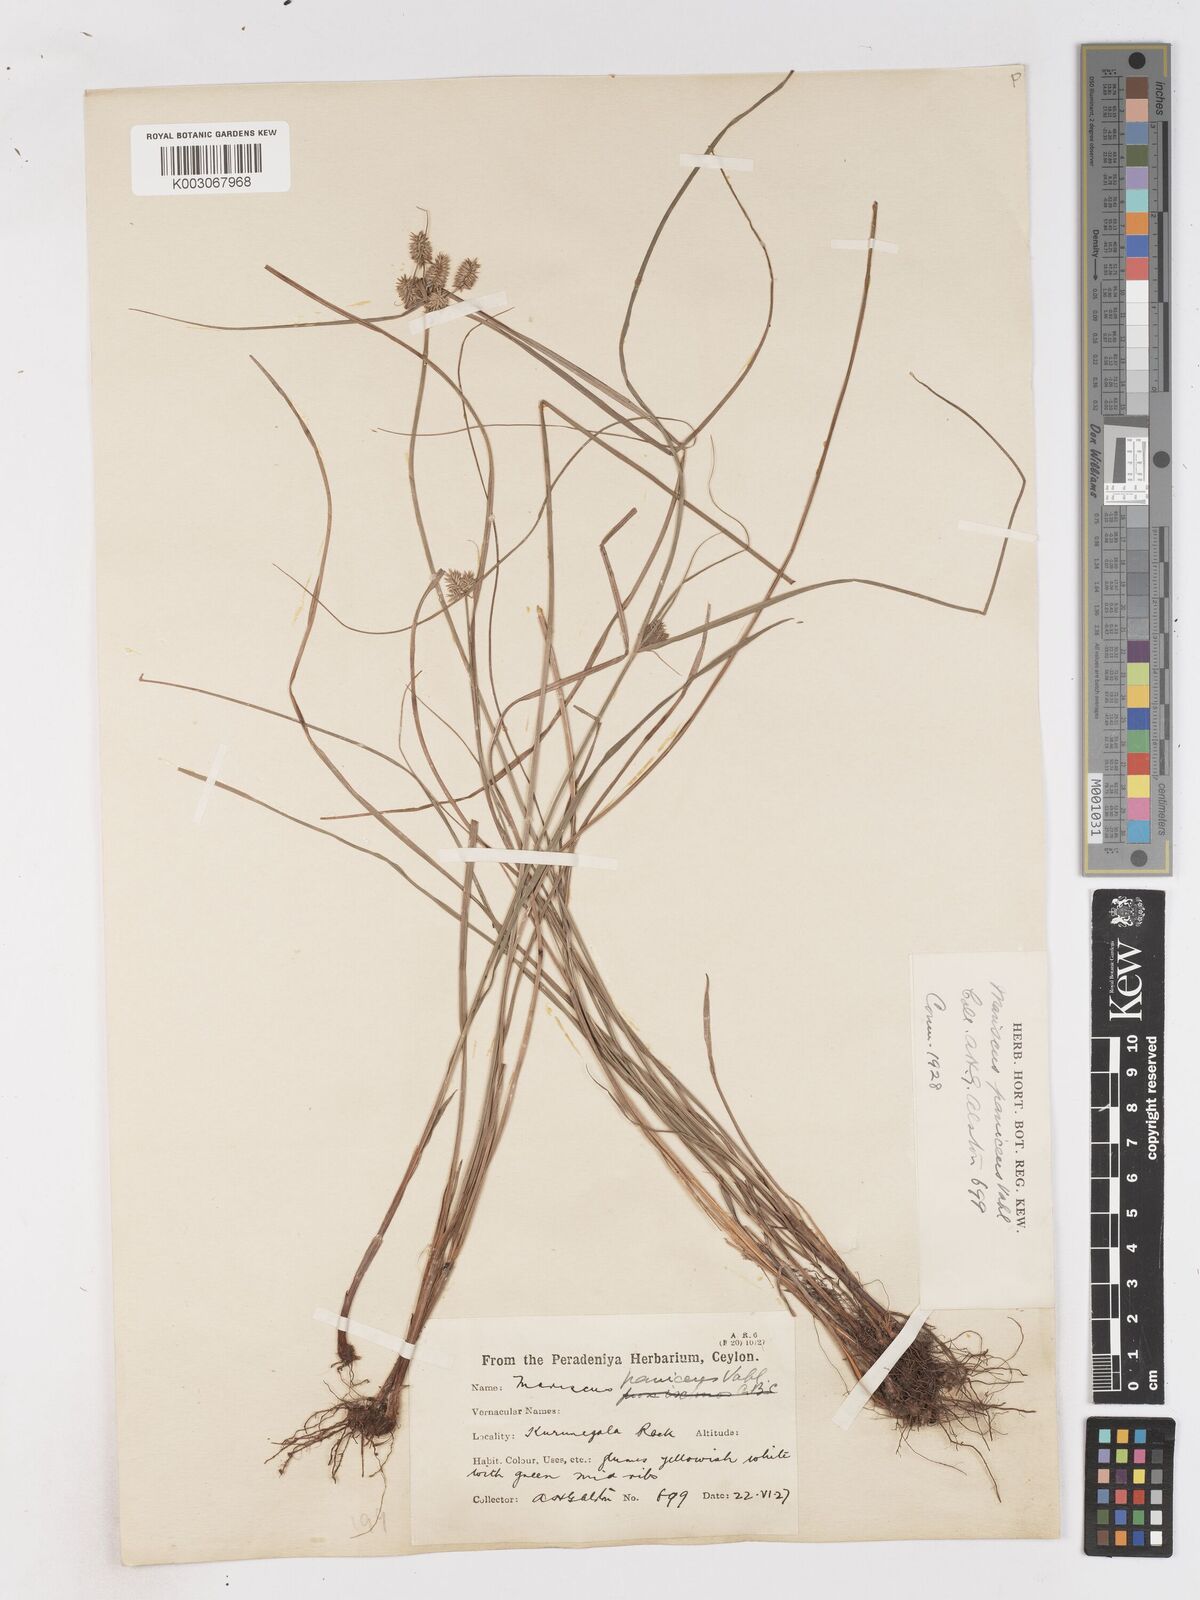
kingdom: Plantae
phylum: Tracheophyta
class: Liliopsida
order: Poales
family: Cyperaceae
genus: Cyperus
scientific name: Cyperus paniceus
